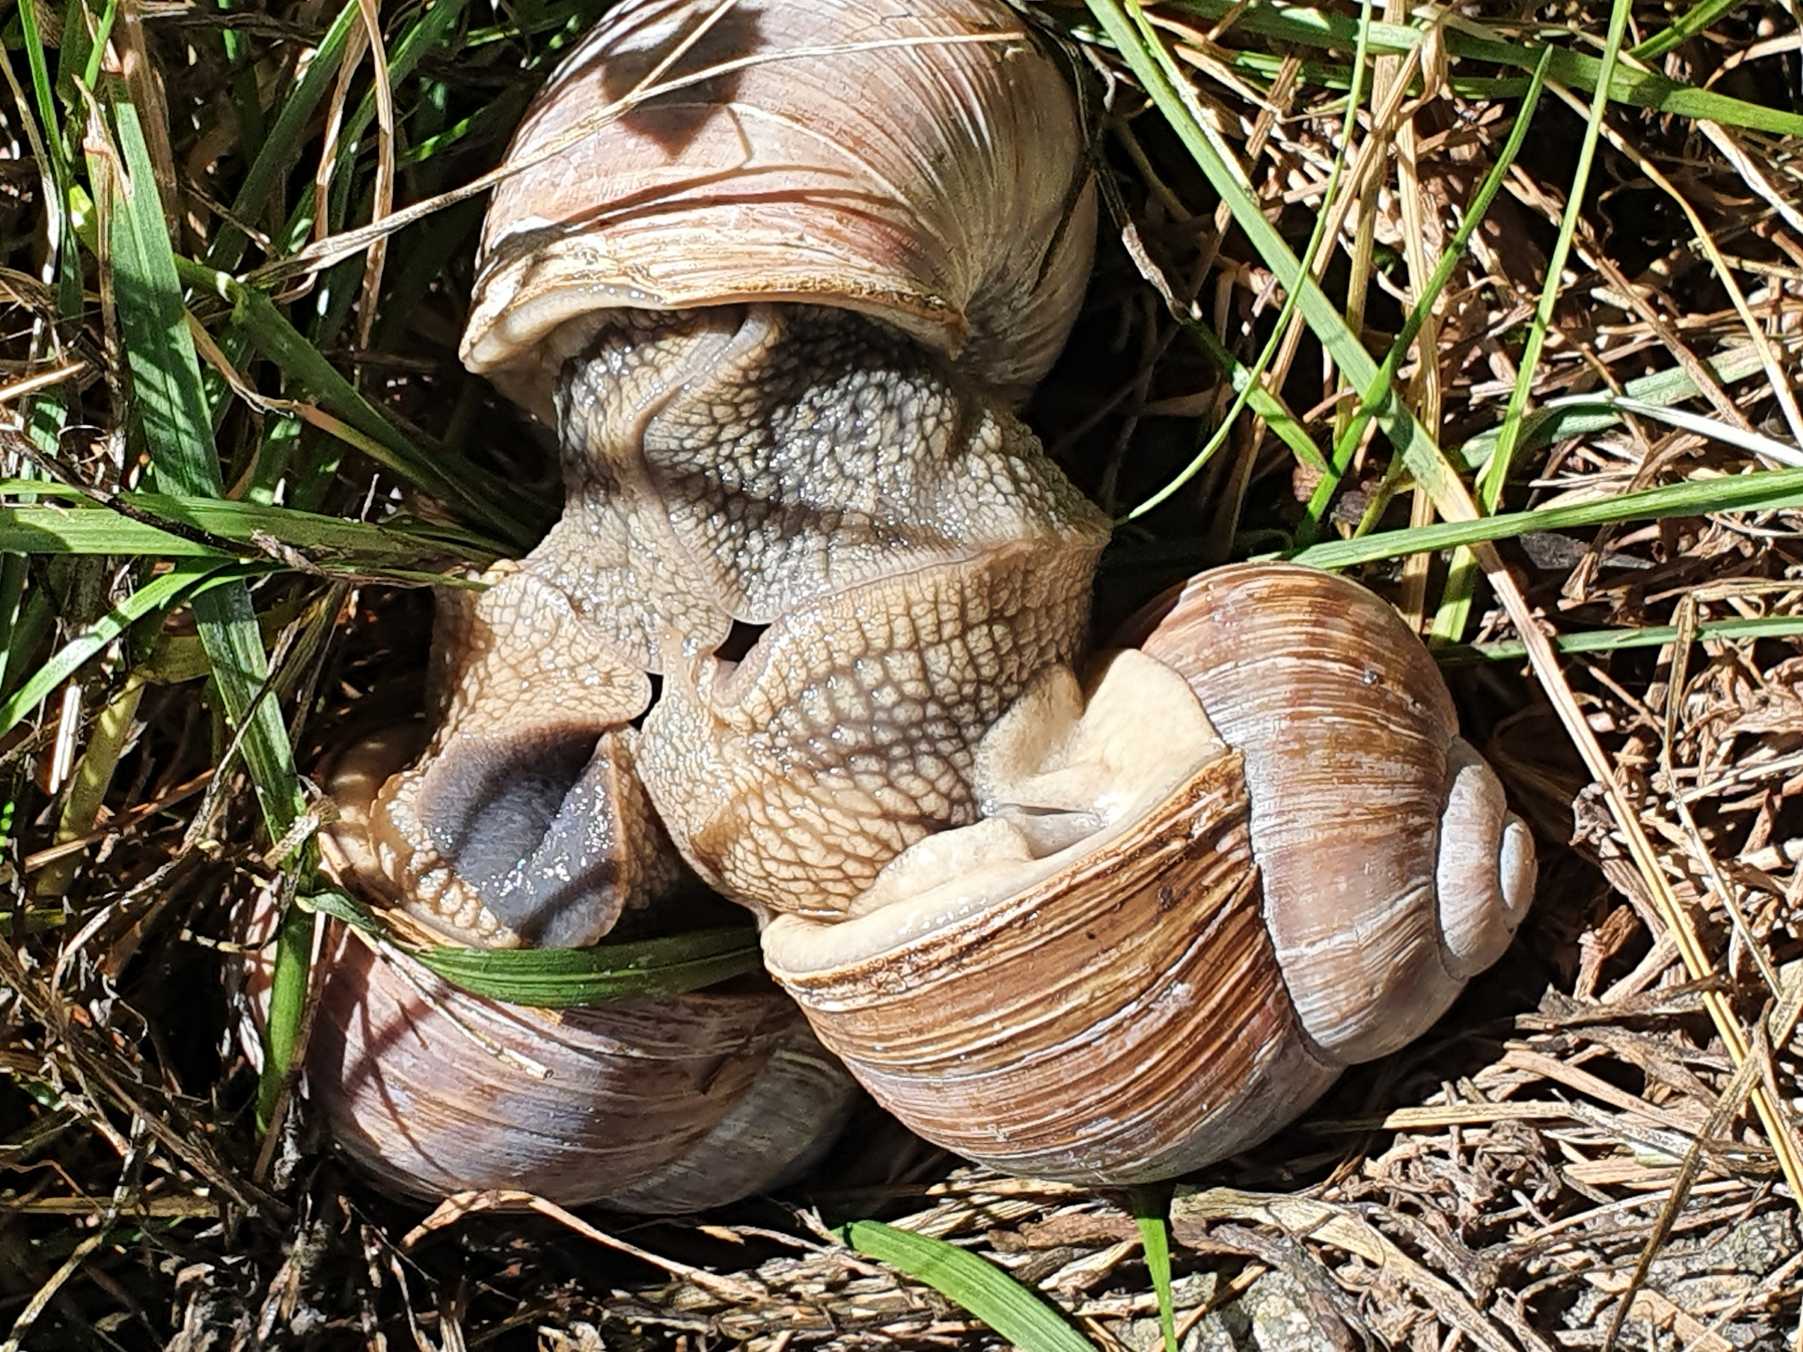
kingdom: Animalia
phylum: Mollusca
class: Gastropoda
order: Stylommatophora
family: Helicidae
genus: Helix
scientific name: Helix pomatia
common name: Vinbjergsnegl
